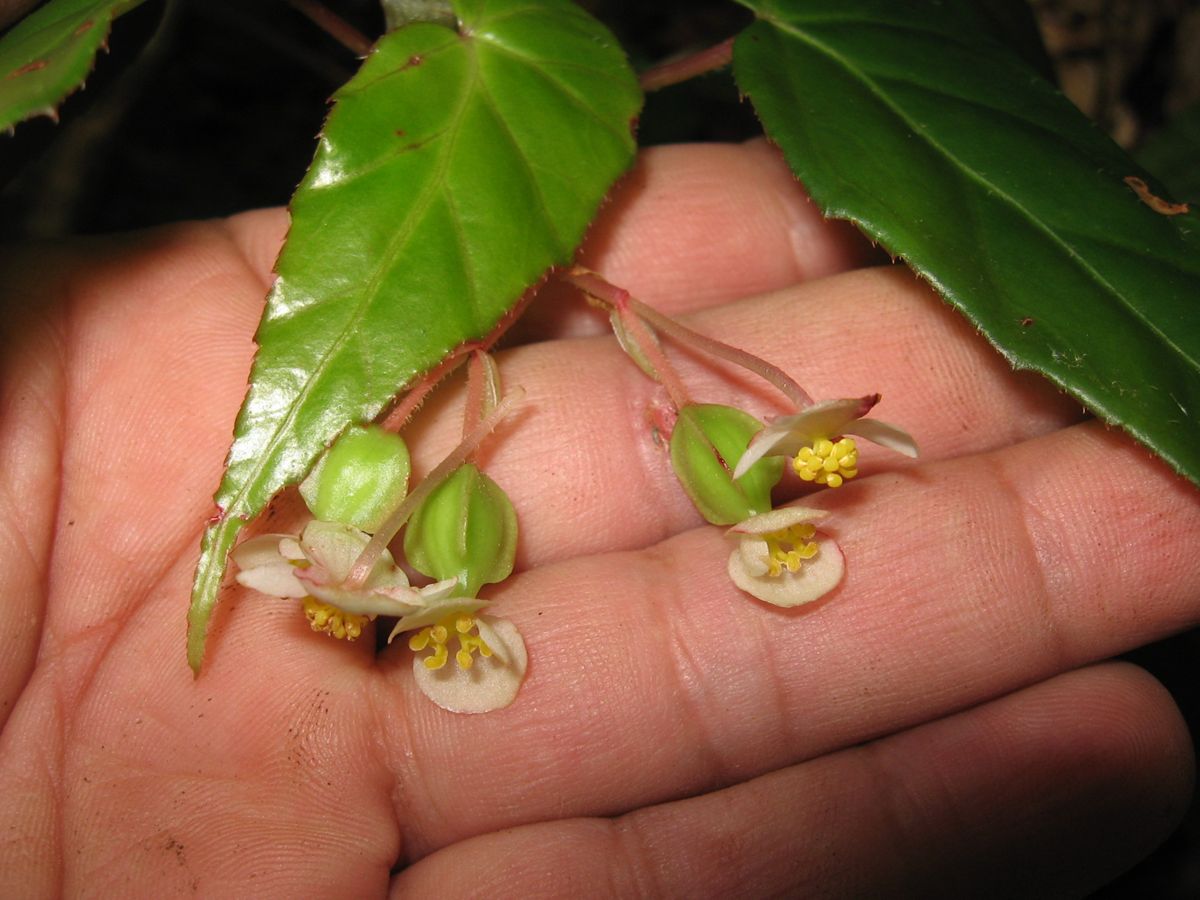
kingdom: Plantae
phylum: Tracheophyta
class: Magnoliopsida
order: Cucurbitales
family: Begoniaceae
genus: Begonia
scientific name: Begonia yunckeri
